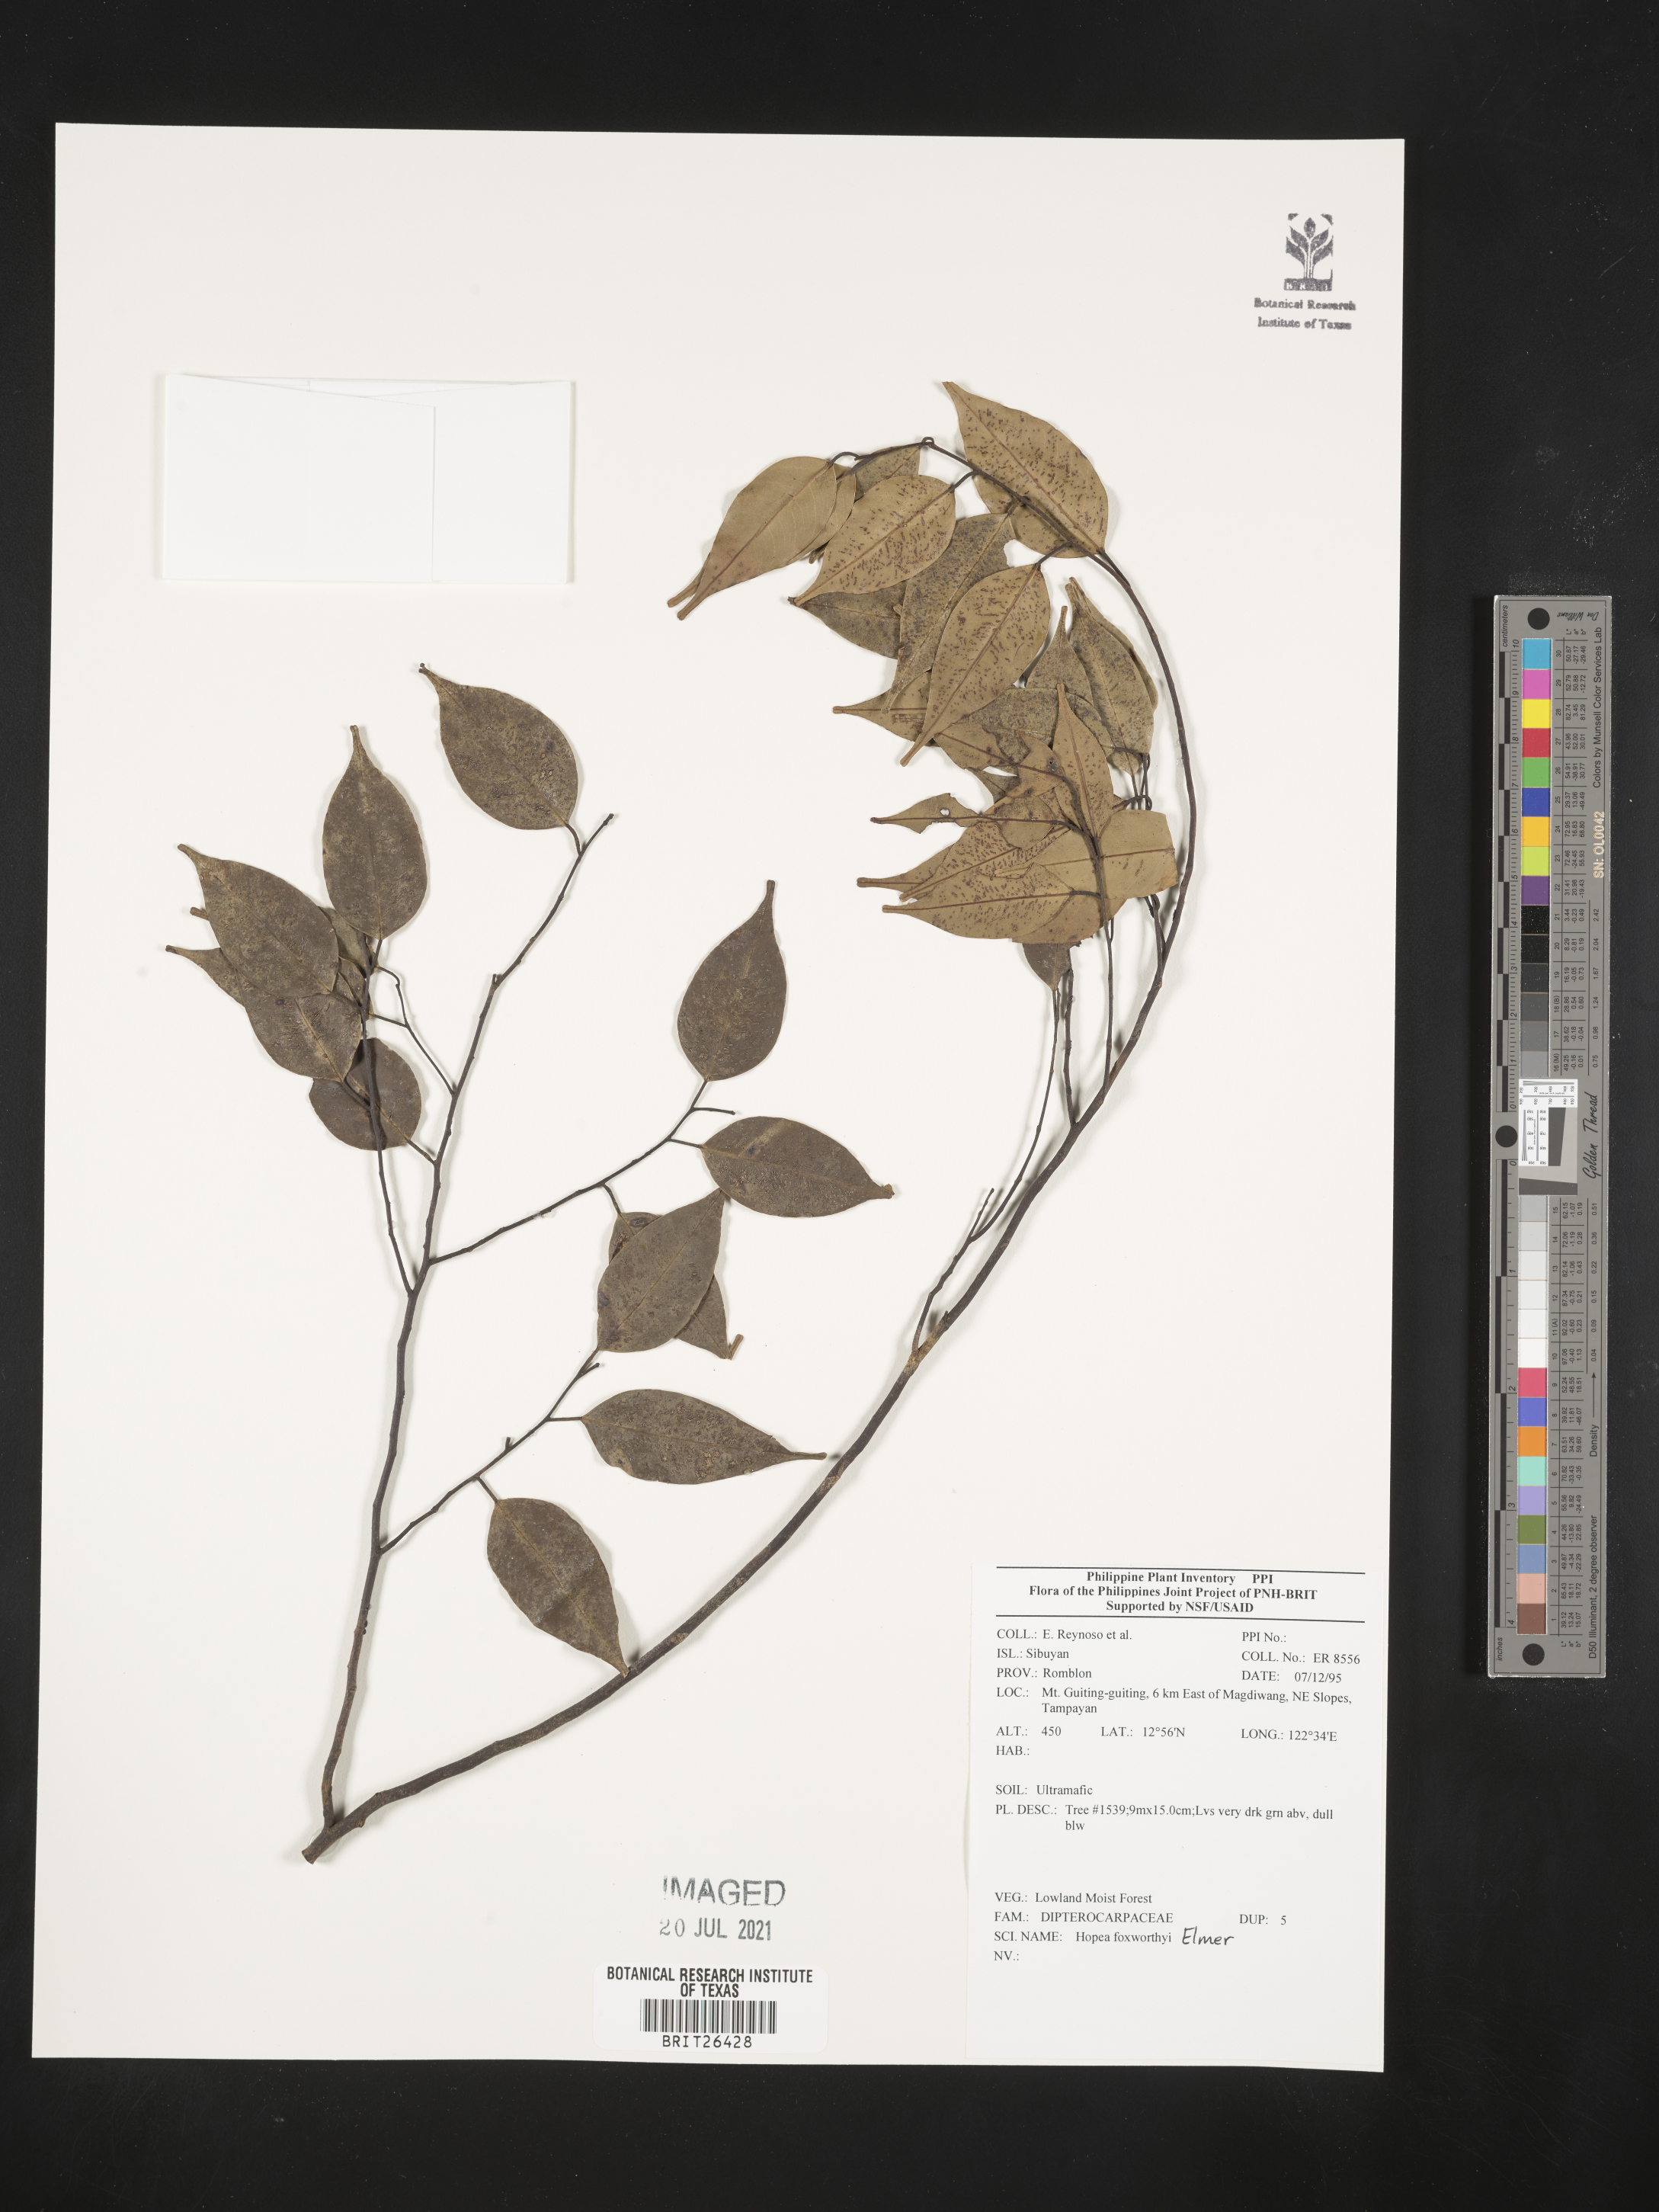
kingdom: Plantae
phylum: Tracheophyta
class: Magnoliopsida
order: Malvales
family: Dipterocarpaceae
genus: Hopea
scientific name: Hopea foxworthyi
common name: Dalingdingan
